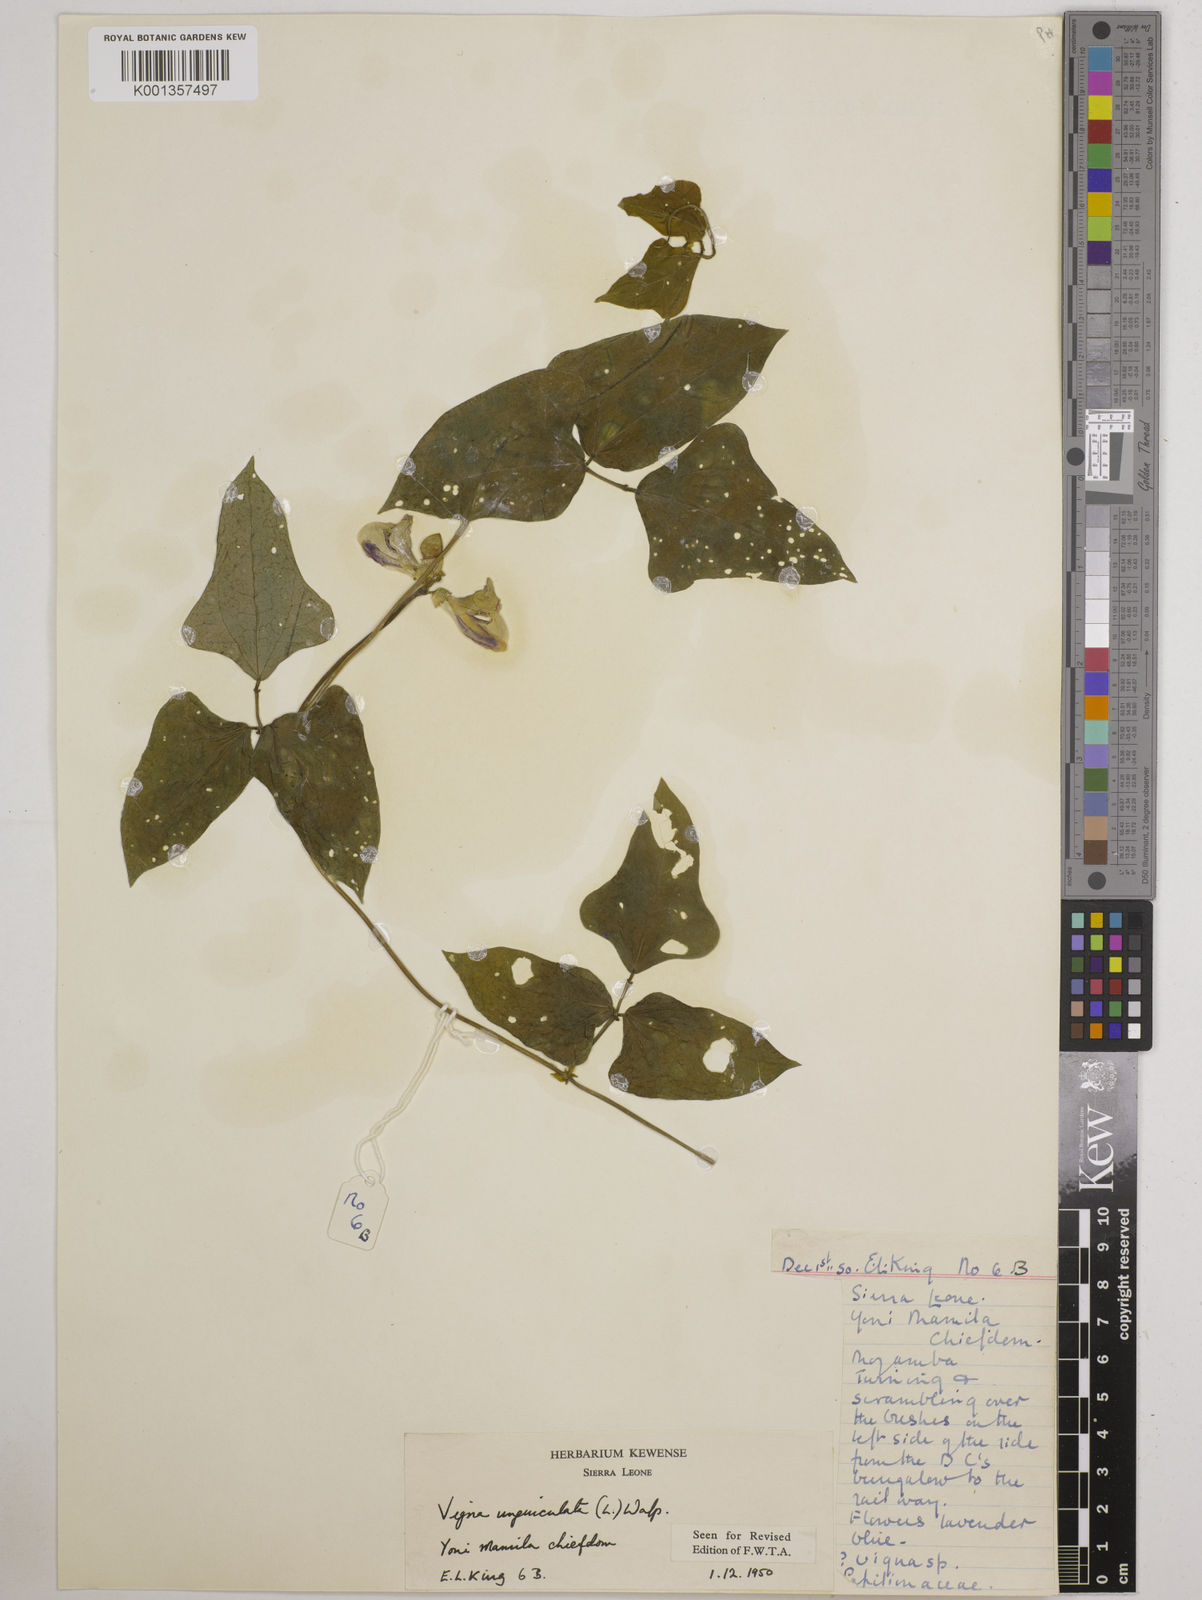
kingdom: Plantae
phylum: Tracheophyta
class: Magnoliopsida
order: Fabales
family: Fabaceae
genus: Vigna
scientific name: Vigna
